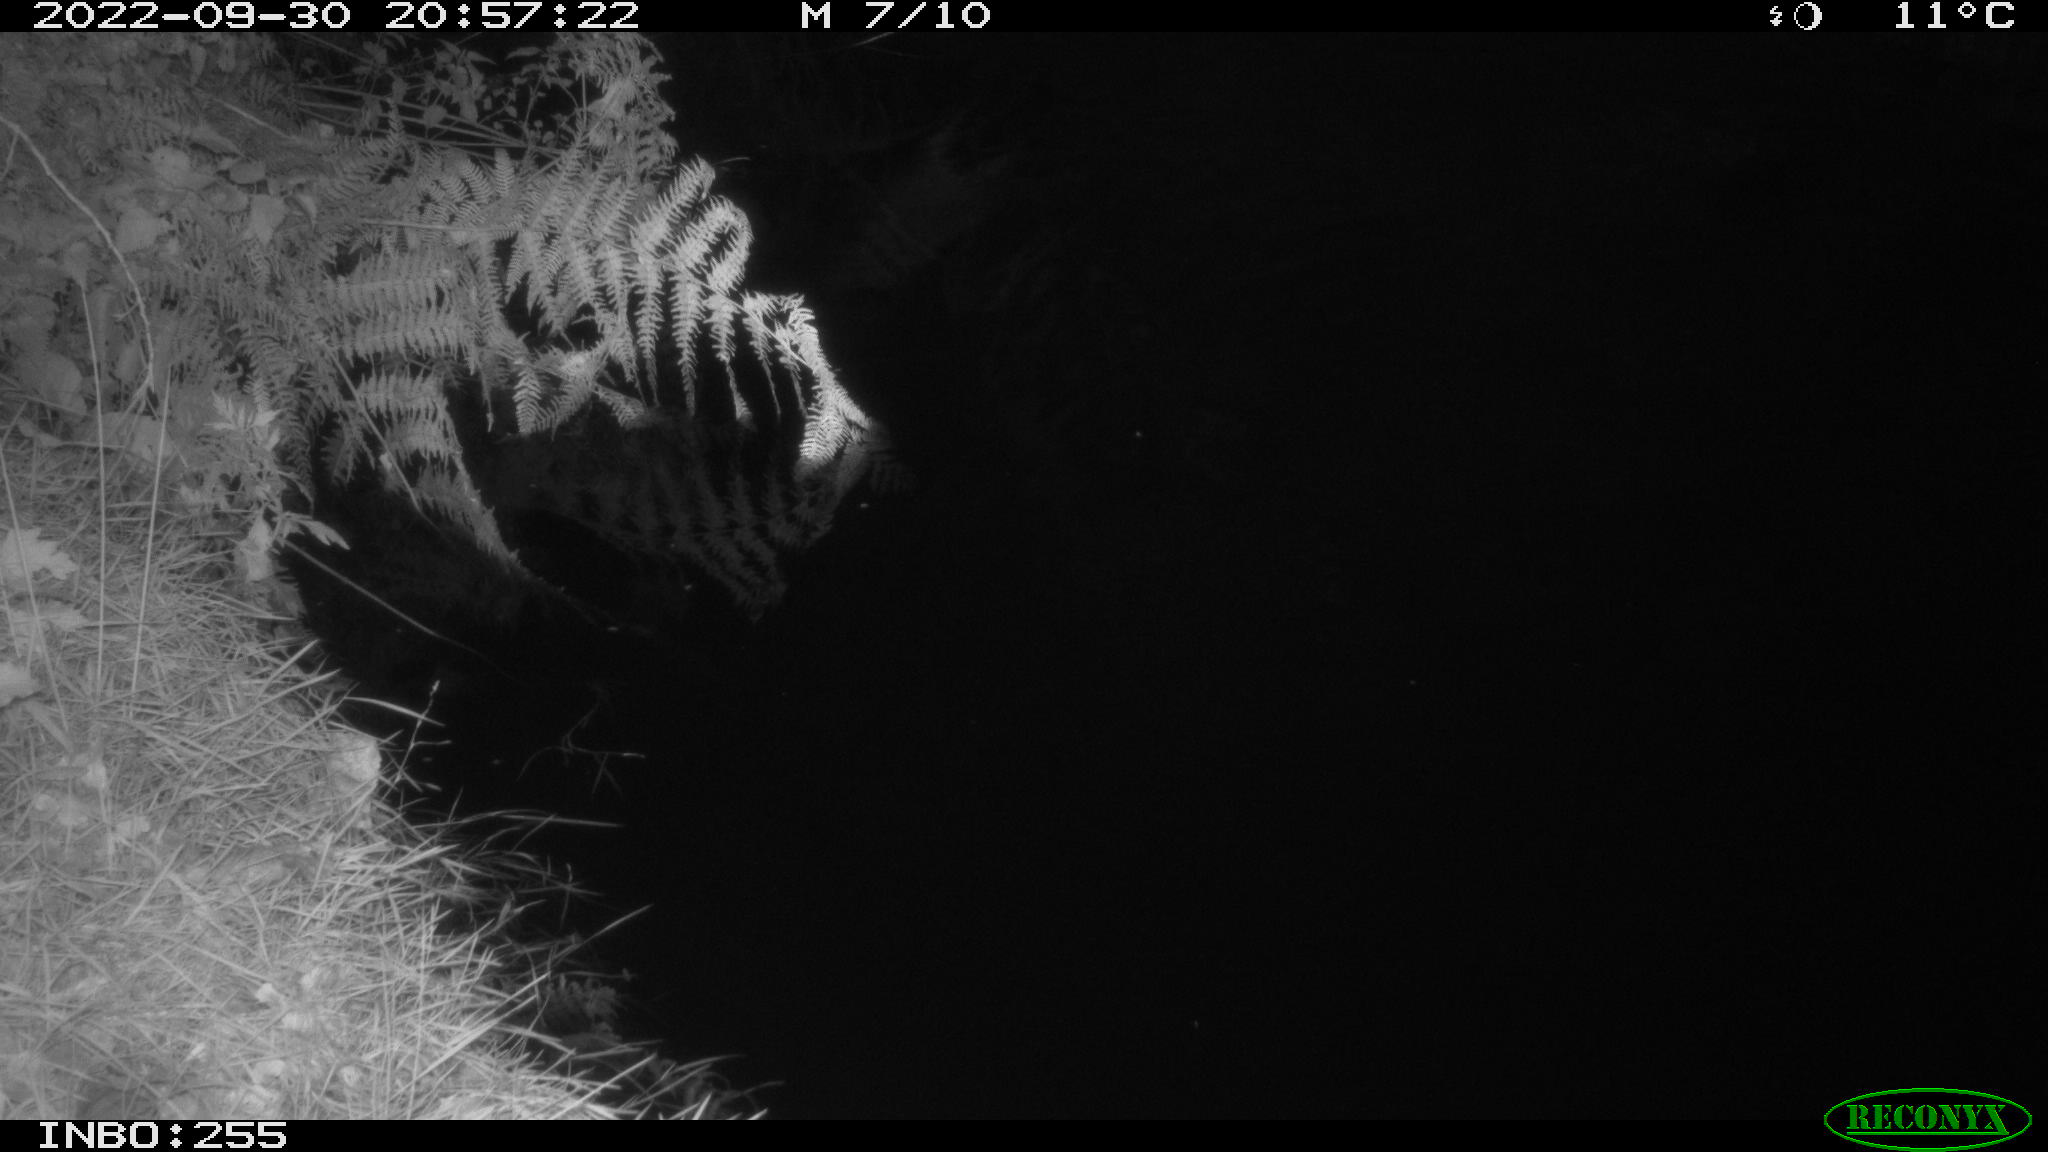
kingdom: Animalia
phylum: Chordata
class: Mammalia
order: Rodentia
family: Muridae
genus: Rattus
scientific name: Rattus norvegicus
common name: Brown rat
